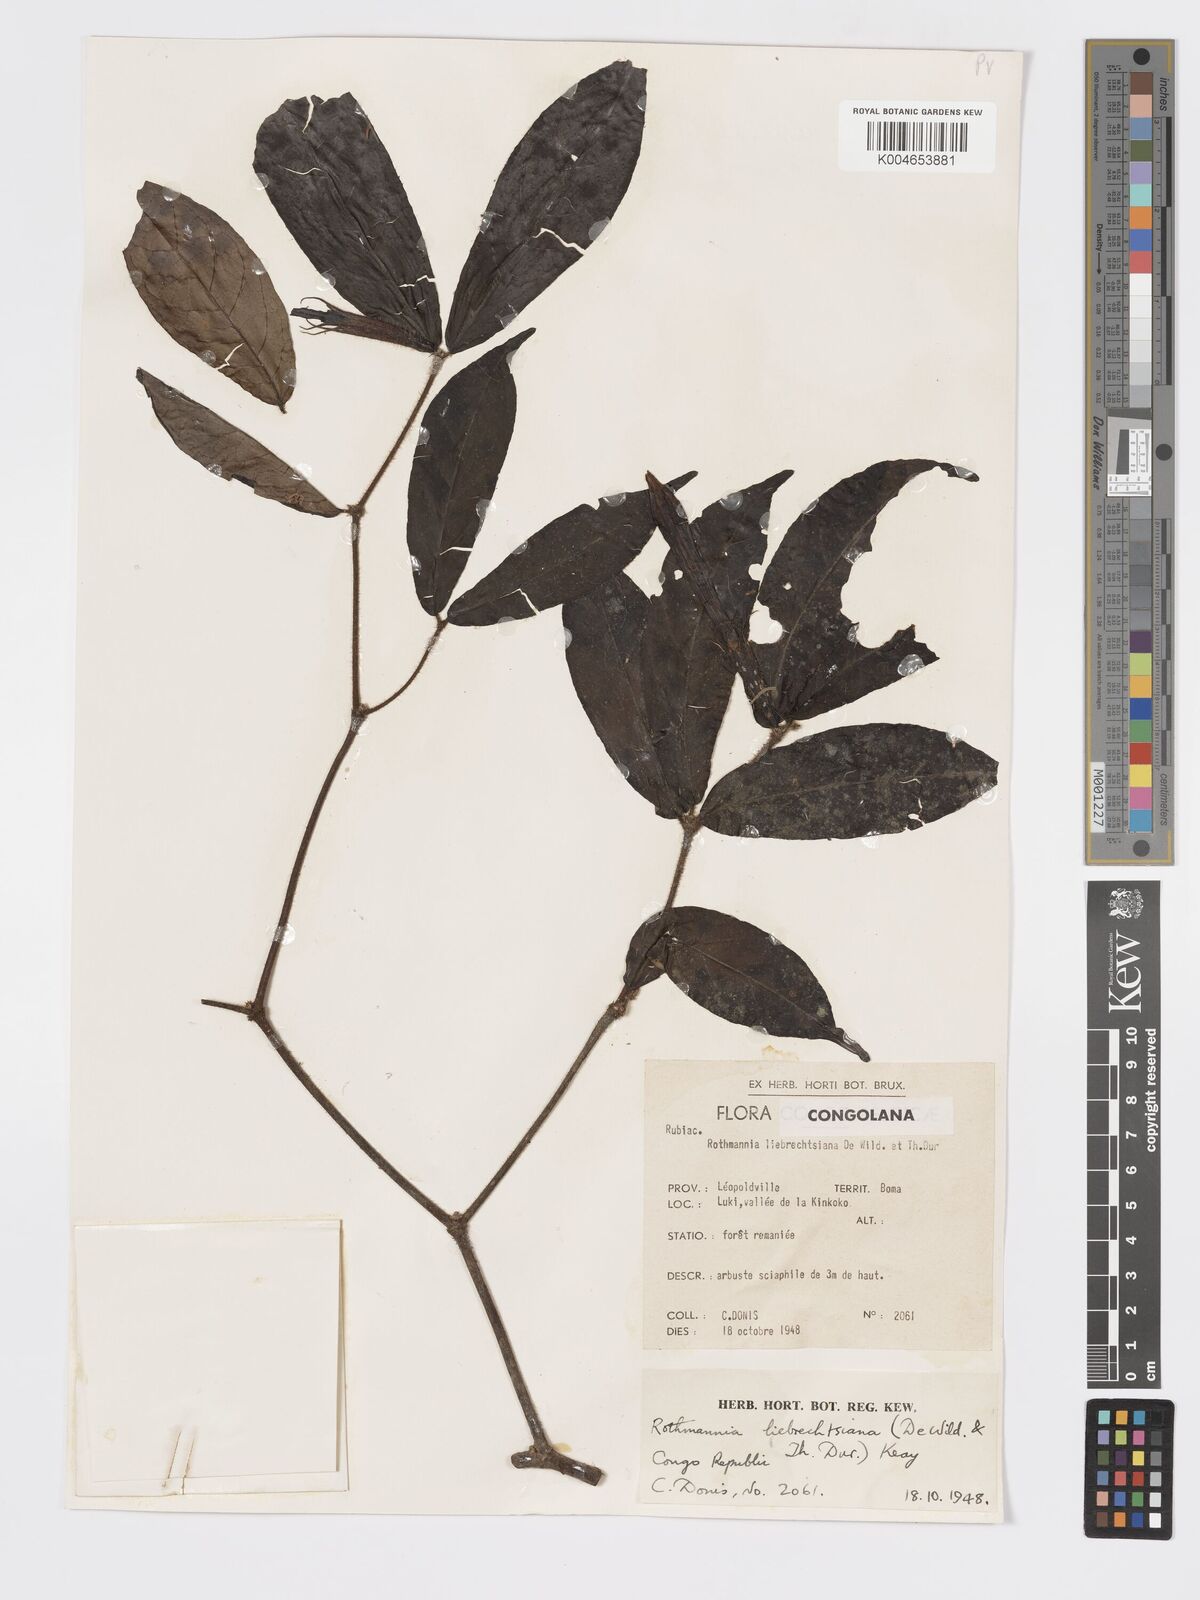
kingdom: Plantae
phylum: Tracheophyta
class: Magnoliopsida
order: Gentianales
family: Rubiaceae
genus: Rothmannia
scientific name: Rothmannia liebrechtsiana
